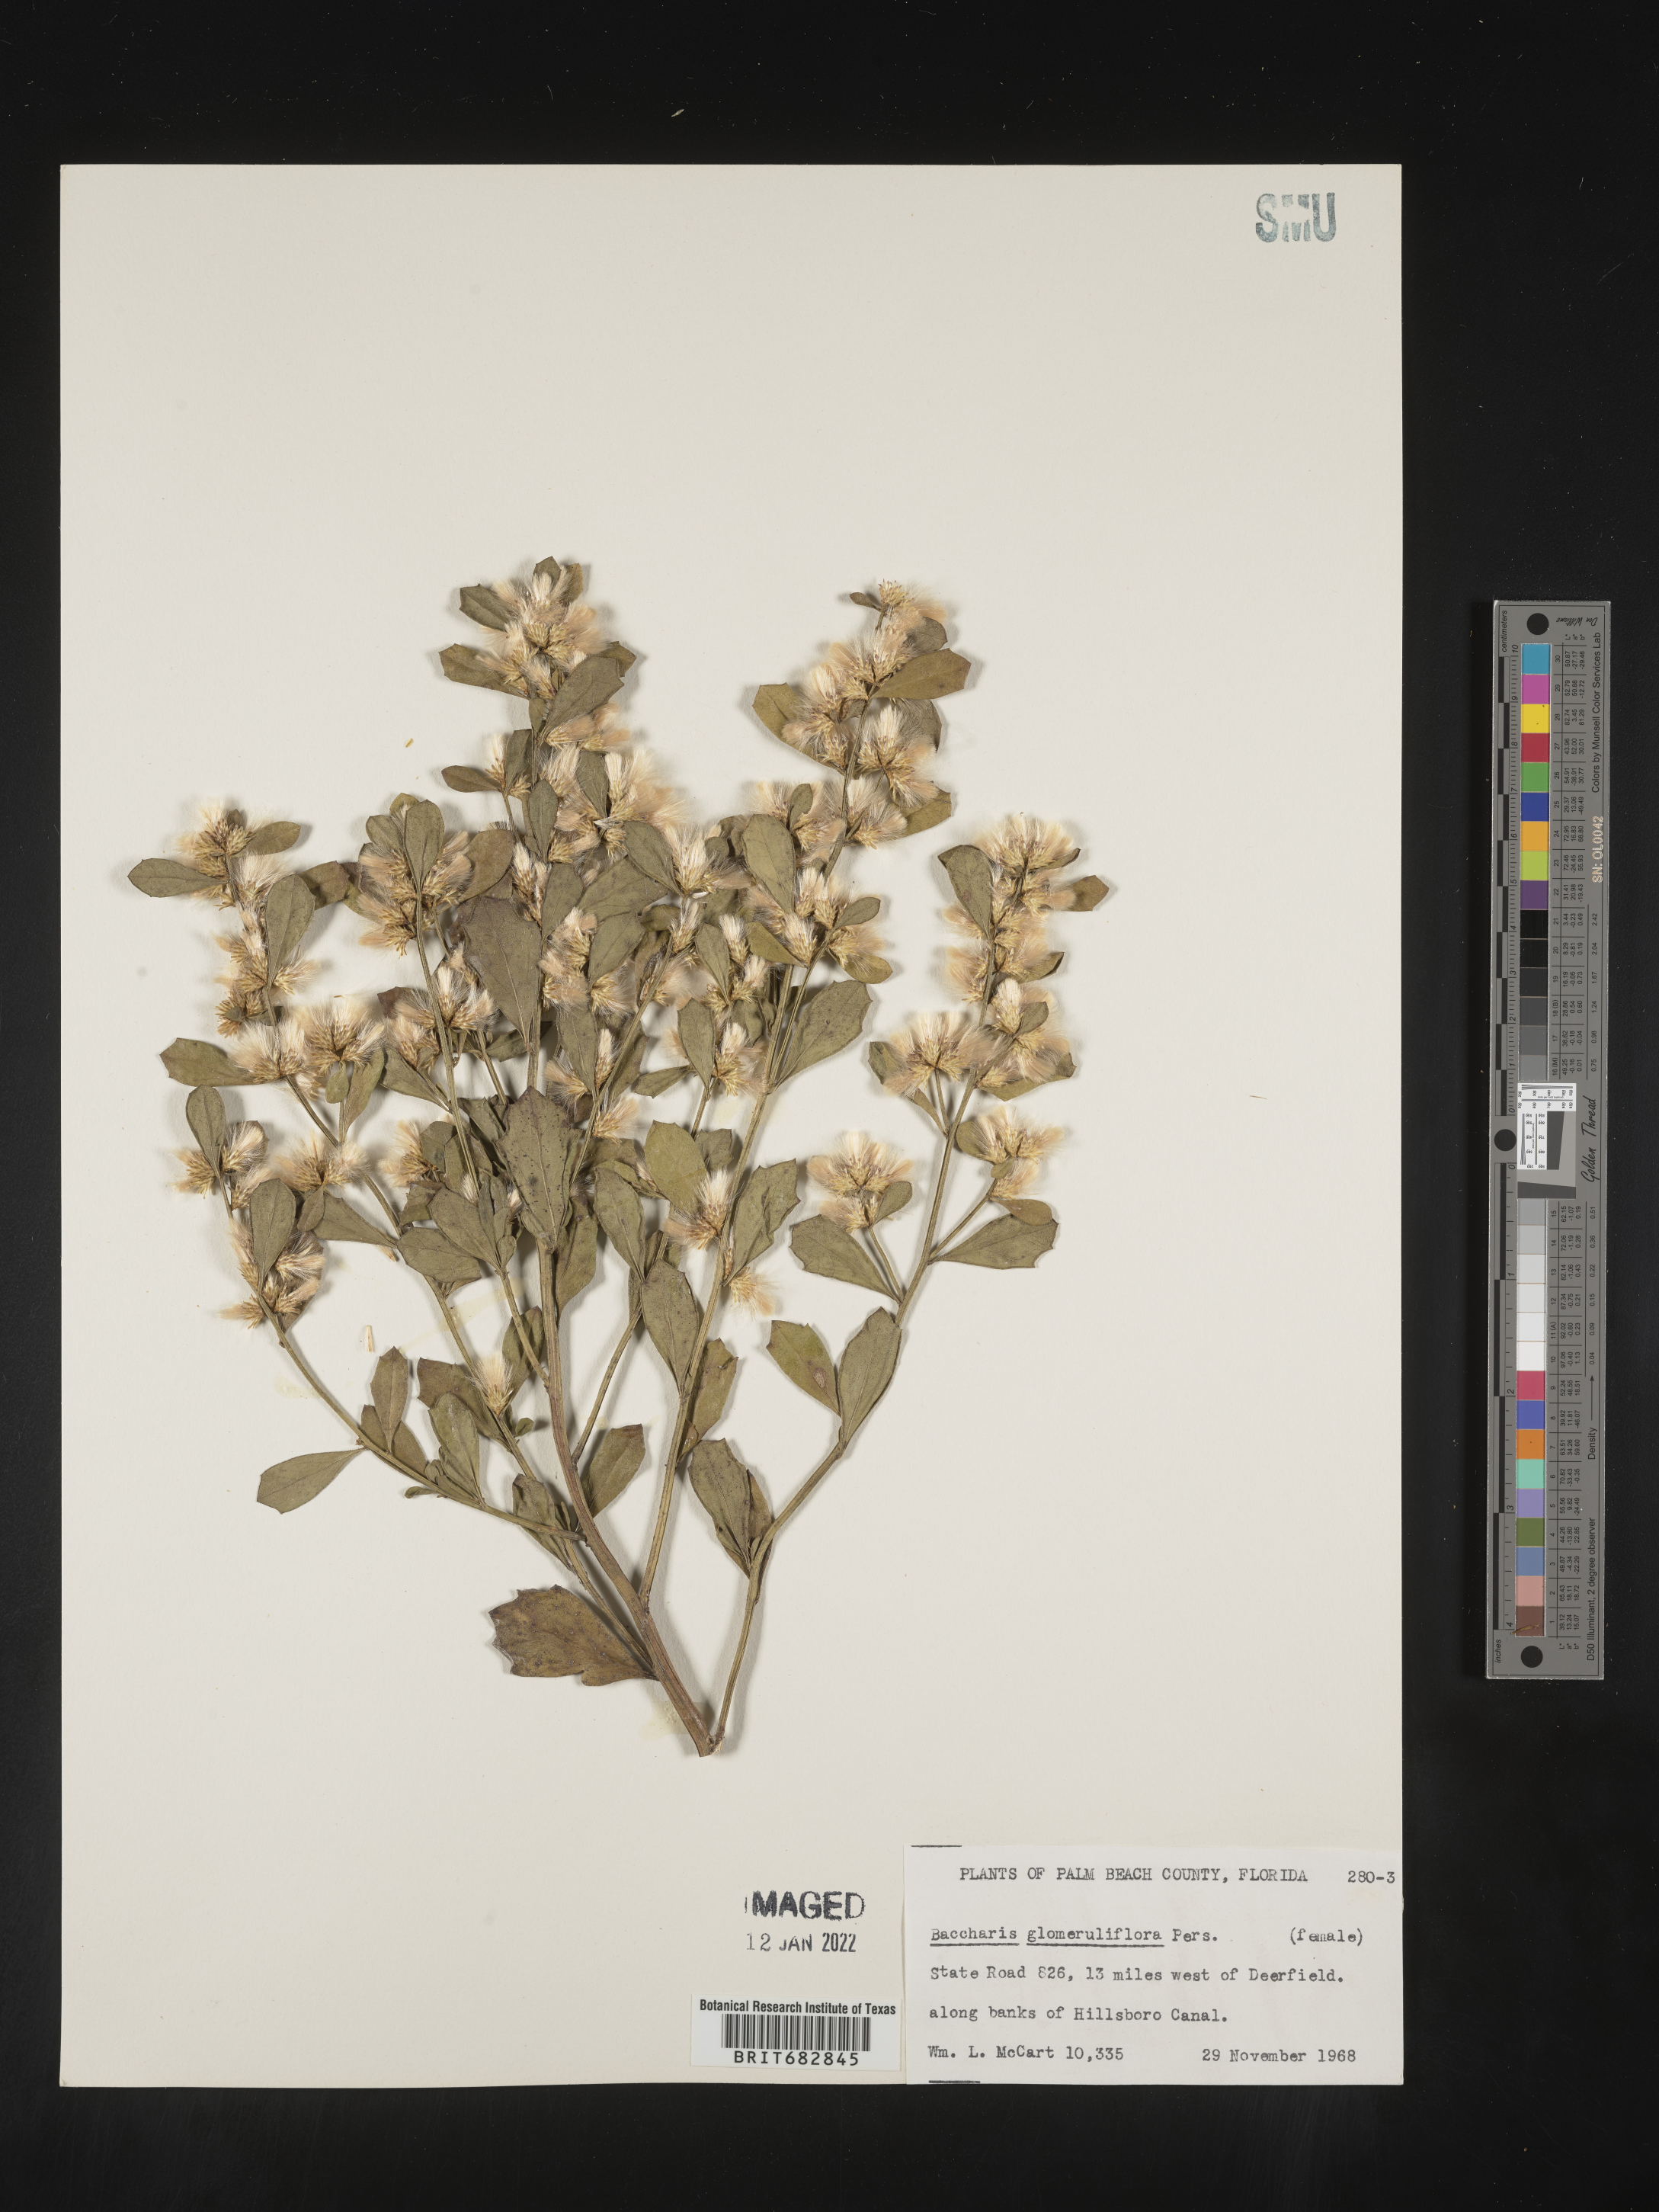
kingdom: Plantae
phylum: Tracheophyta
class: Magnoliopsida
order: Asterales
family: Asteraceae
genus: Baccharis
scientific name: Baccharis glomeruliflora
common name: Silverling groundsel bush
